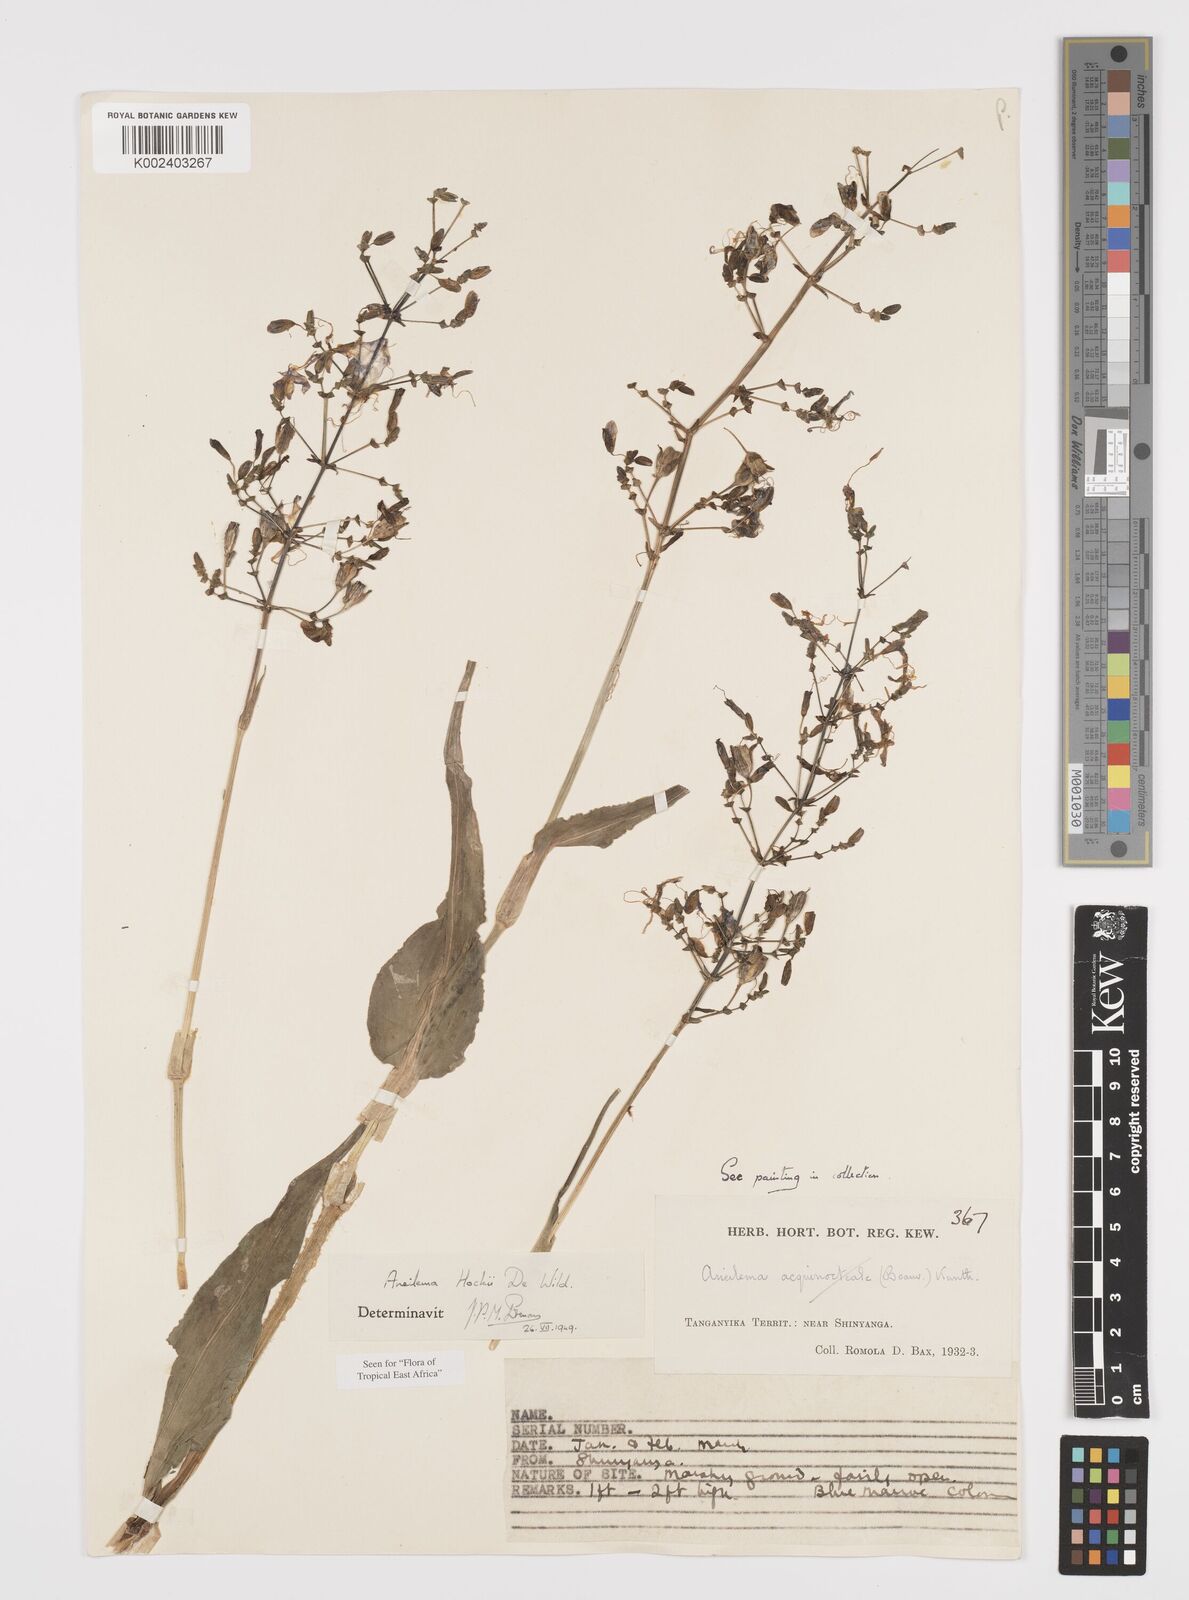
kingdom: Plantae
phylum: Tracheophyta
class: Liliopsida
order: Commelinales
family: Commelinaceae
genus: Aneilema
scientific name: Aneilema hockii
